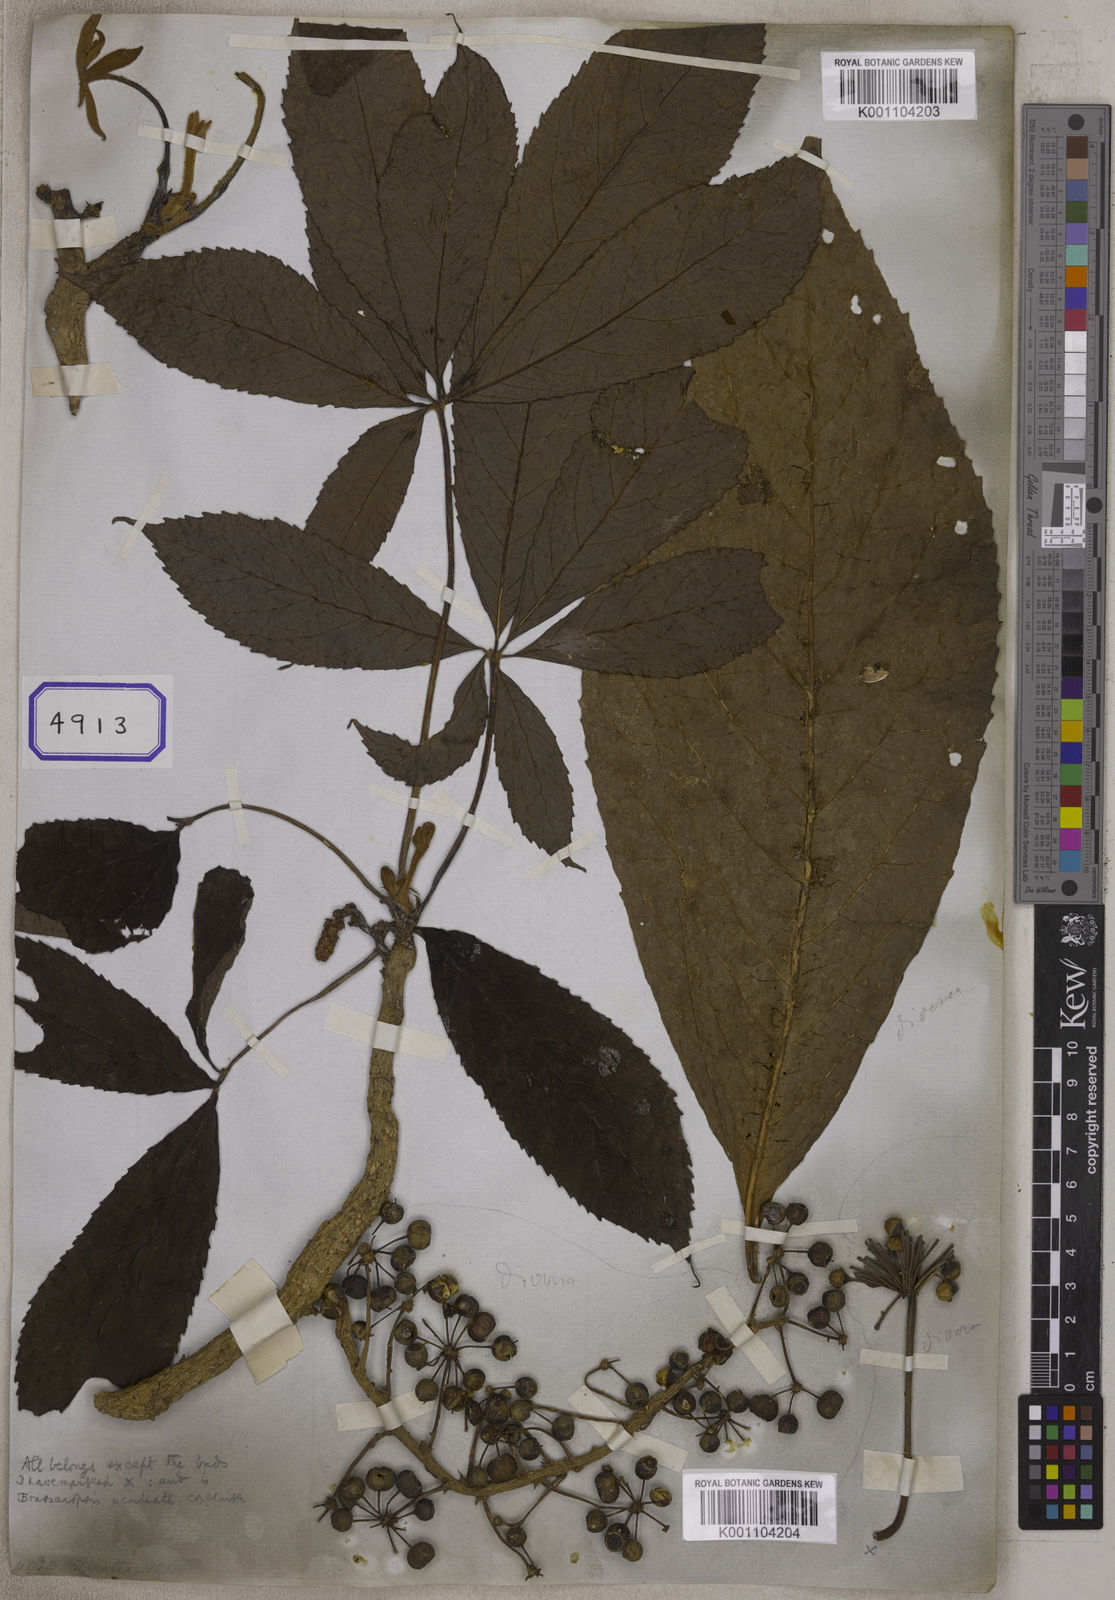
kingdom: Plantae
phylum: Tracheophyta
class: Magnoliopsida
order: Apiales
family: Araliaceae
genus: Hedera
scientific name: Hedera
